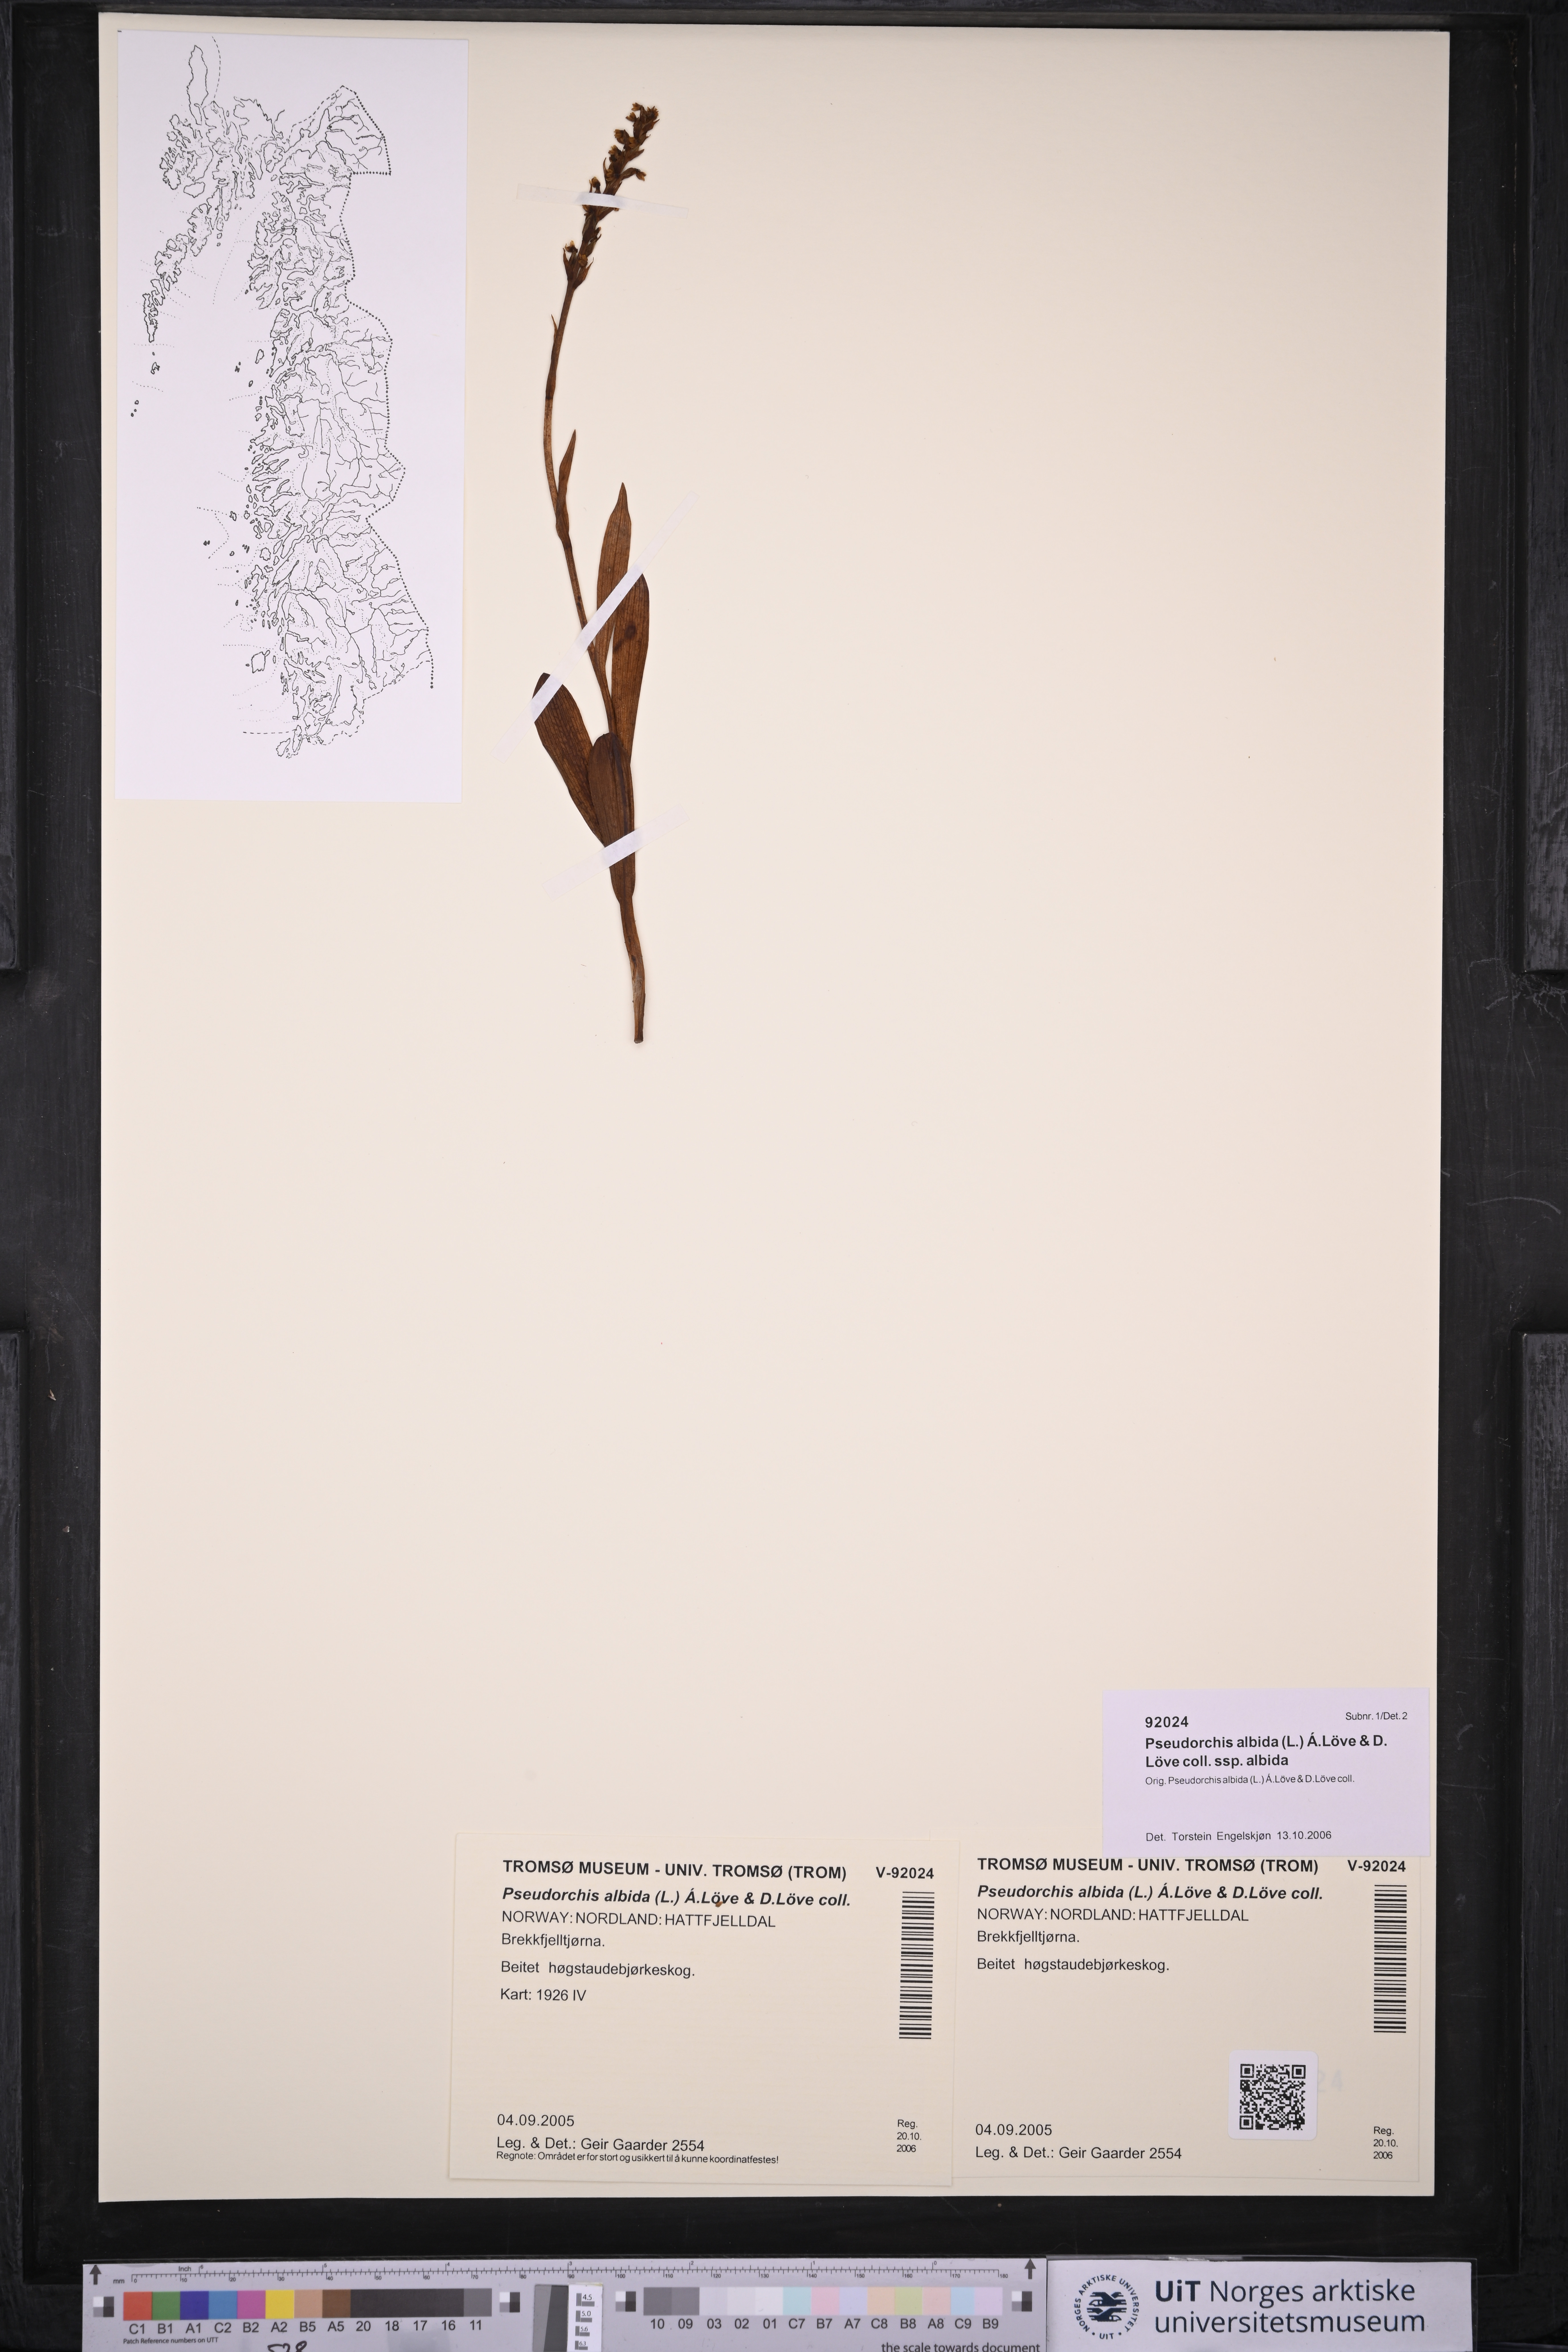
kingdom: Plantae
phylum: Tracheophyta
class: Liliopsida
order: Asparagales
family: Orchidaceae
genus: Pseudorchis
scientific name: Pseudorchis albida
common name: Small-white orchid
